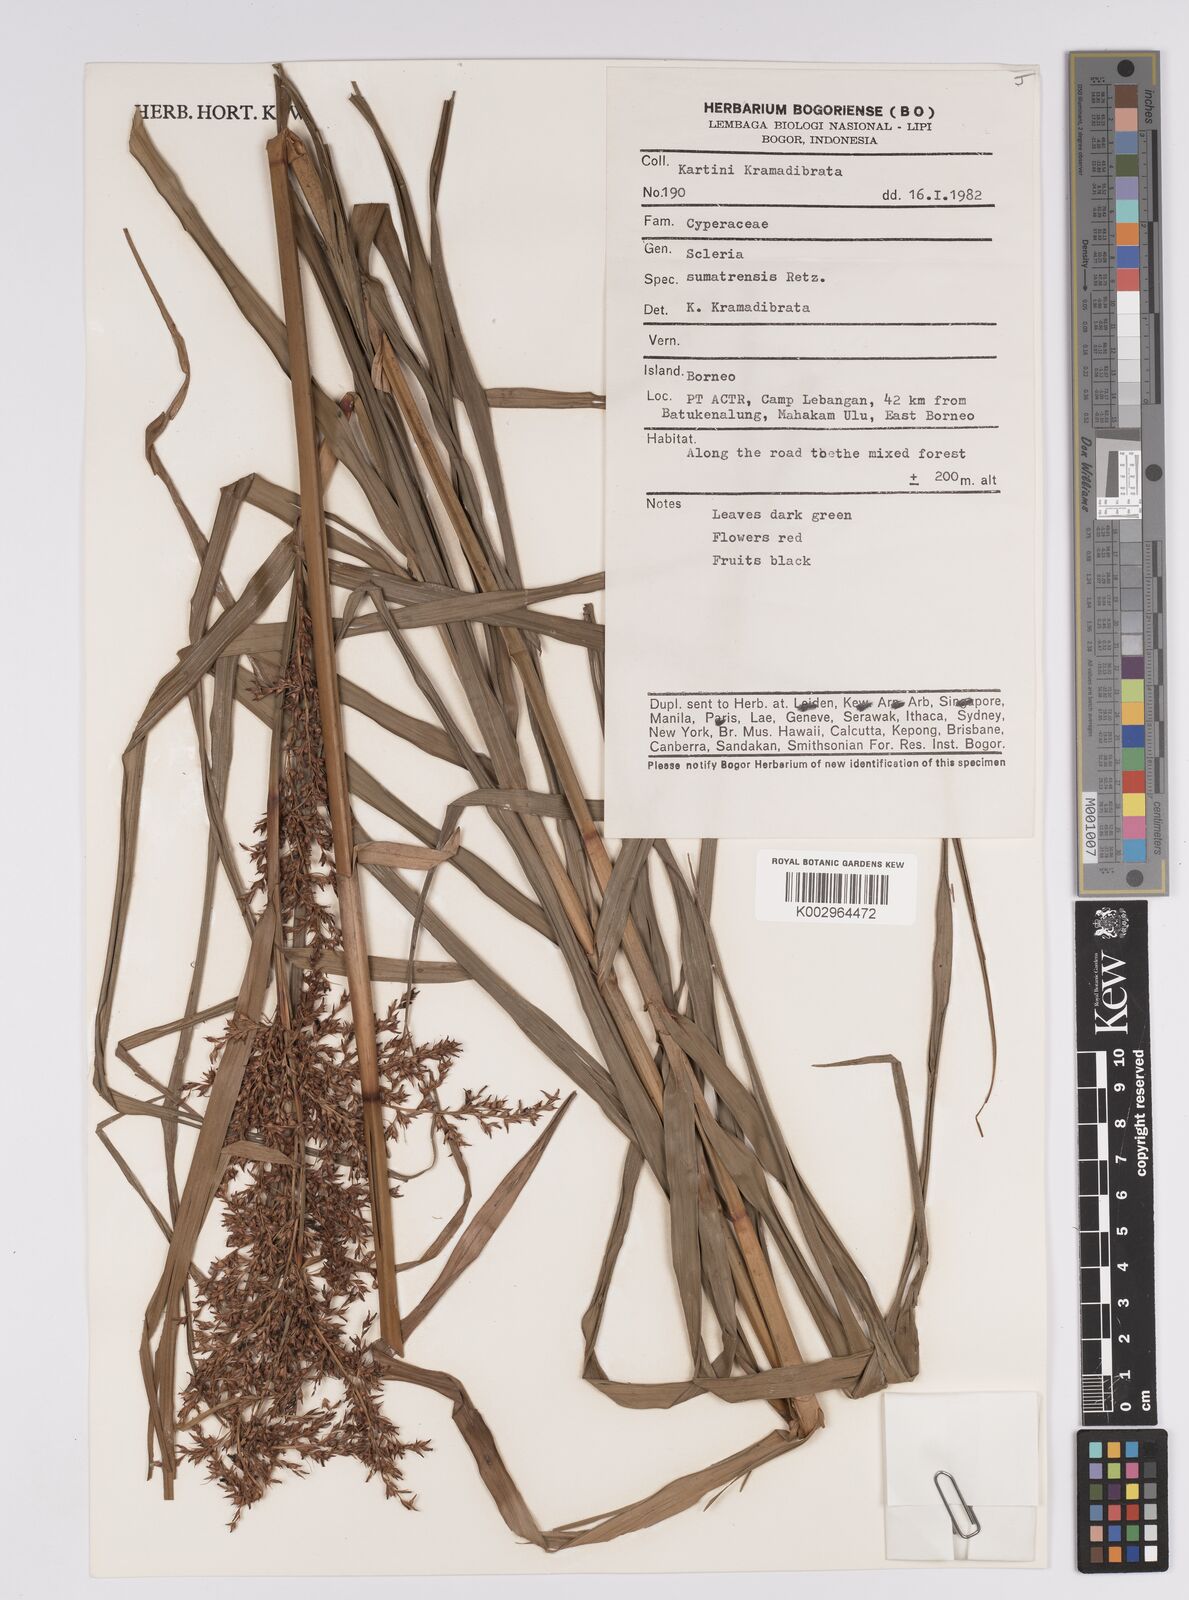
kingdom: Plantae
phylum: Tracheophyta
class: Liliopsida
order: Poales
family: Cyperaceae
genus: Scleria
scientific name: Scleria sumatrensis
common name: Sumatran scleria
